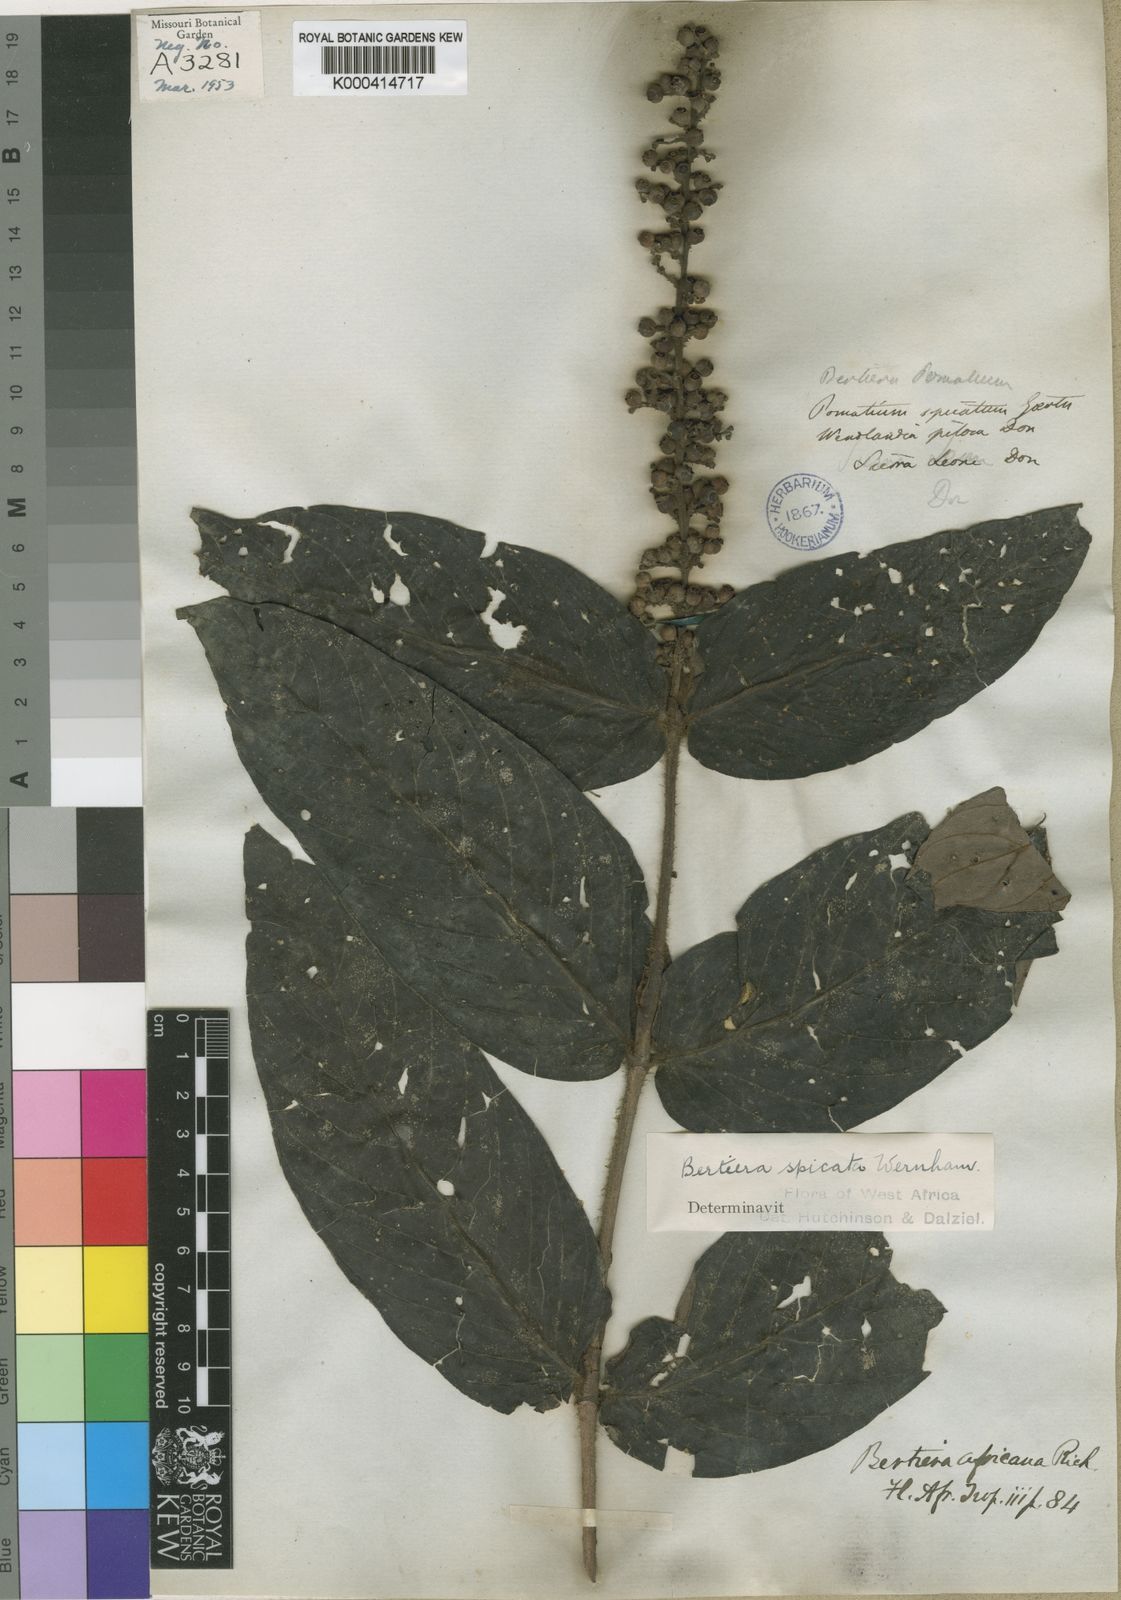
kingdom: Plantae
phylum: Tracheophyta
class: Magnoliopsida
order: Gentianales
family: Rubiaceae
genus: Bertiera
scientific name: Bertiera
